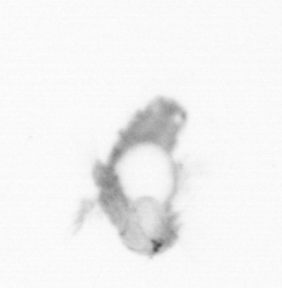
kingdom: Animalia
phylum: Annelida
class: Polychaeta
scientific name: Polychaeta
